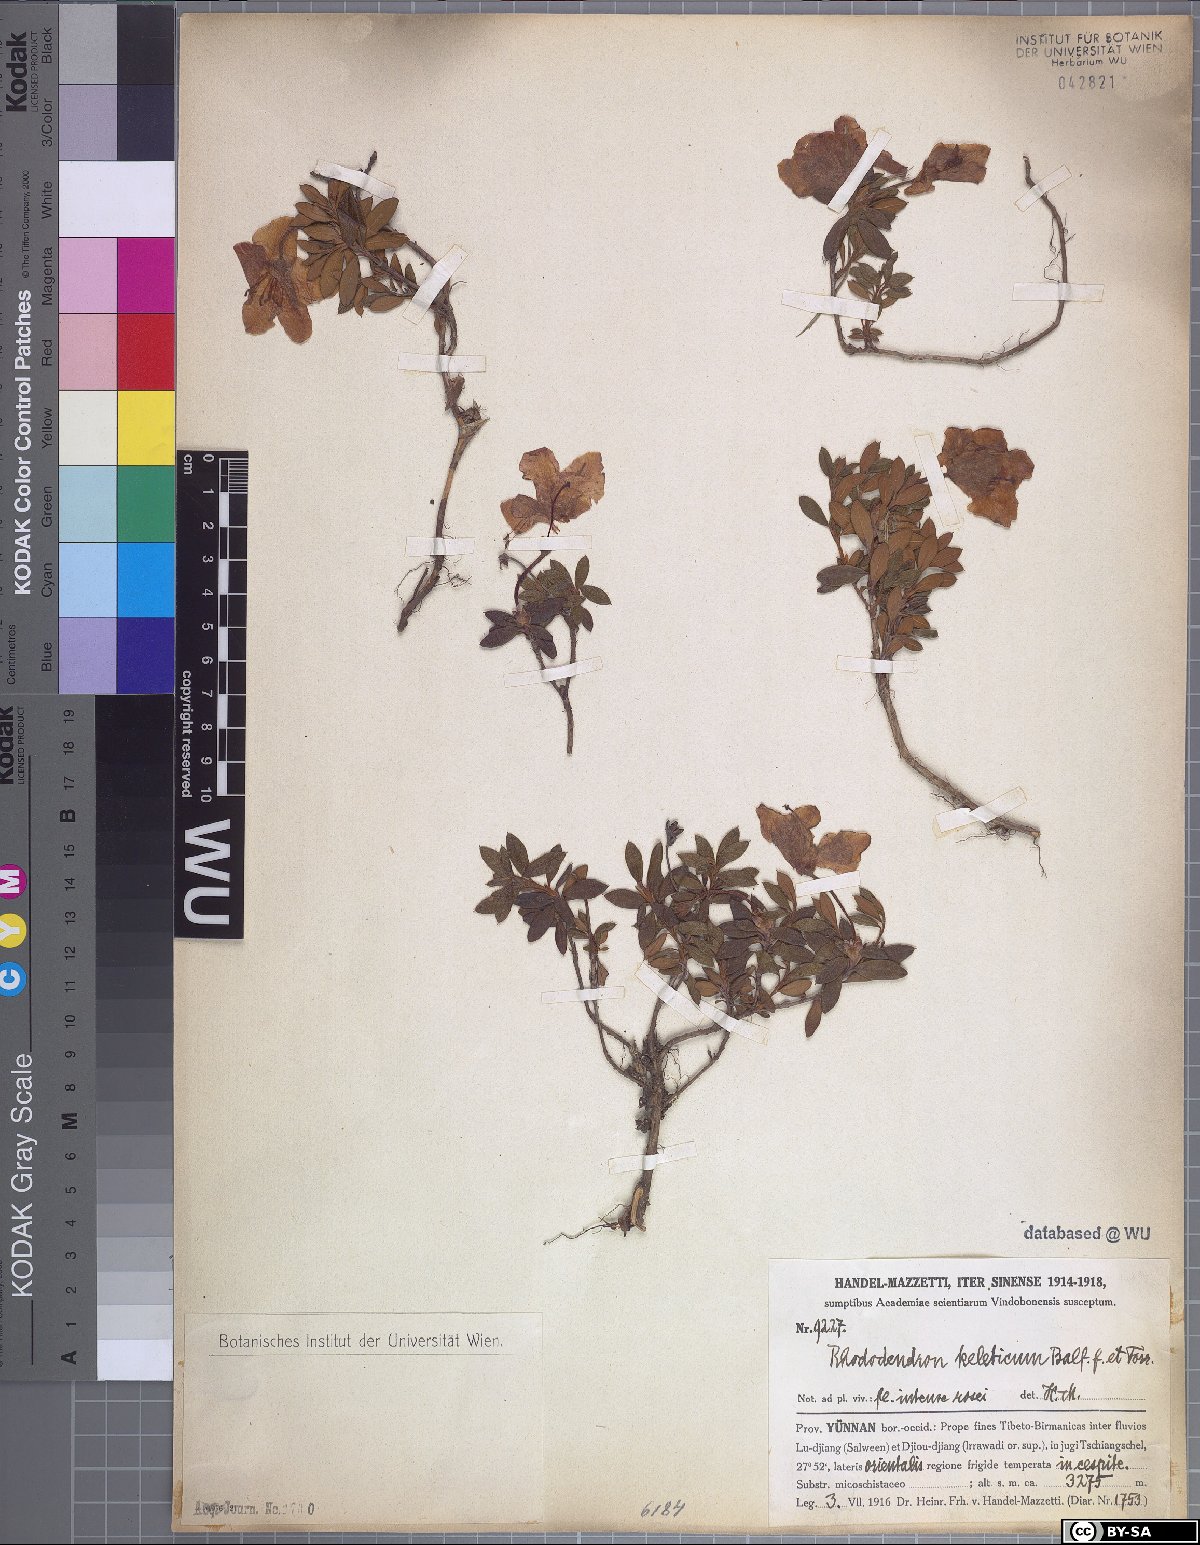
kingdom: Plantae
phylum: Tracheophyta
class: Magnoliopsida
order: Ericales
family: Ericaceae
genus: Rhododendron
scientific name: Rhododendron keleticum
